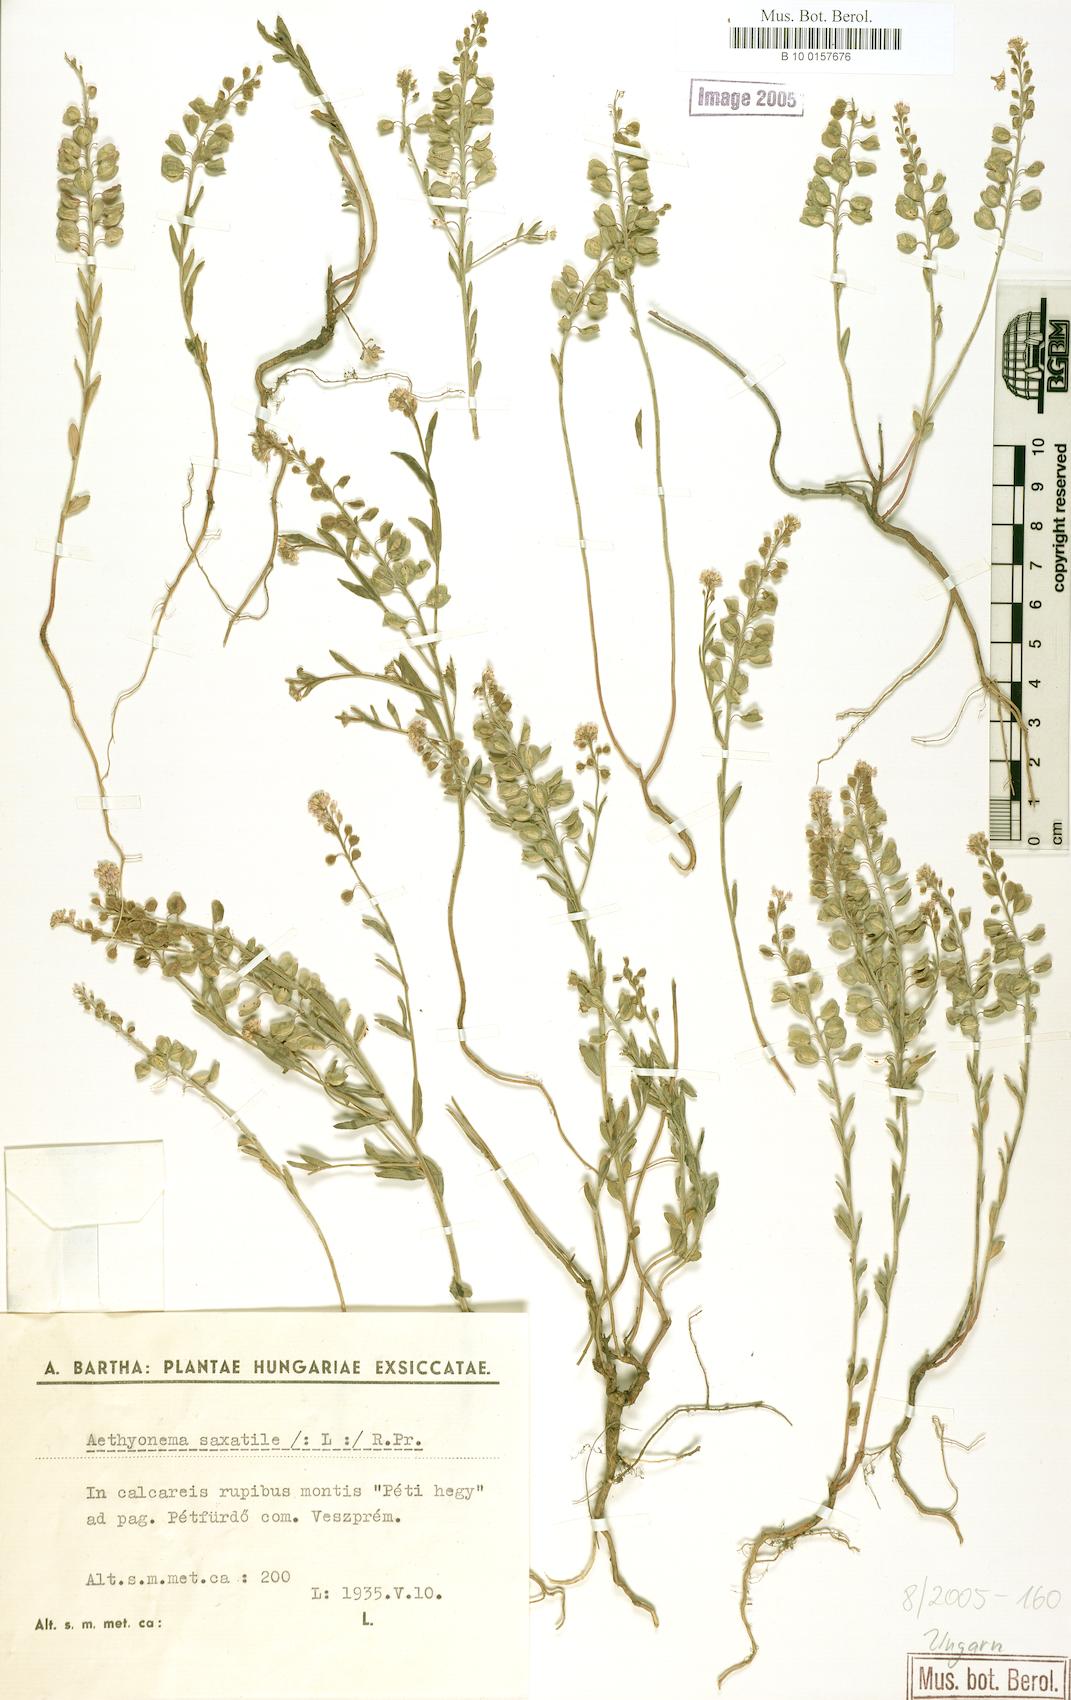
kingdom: Plantae
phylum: Tracheophyta
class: Magnoliopsida
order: Brassicales
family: Brassicaceae
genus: Aethionema
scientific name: Aethionema saxatile
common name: Burnt candytuft
